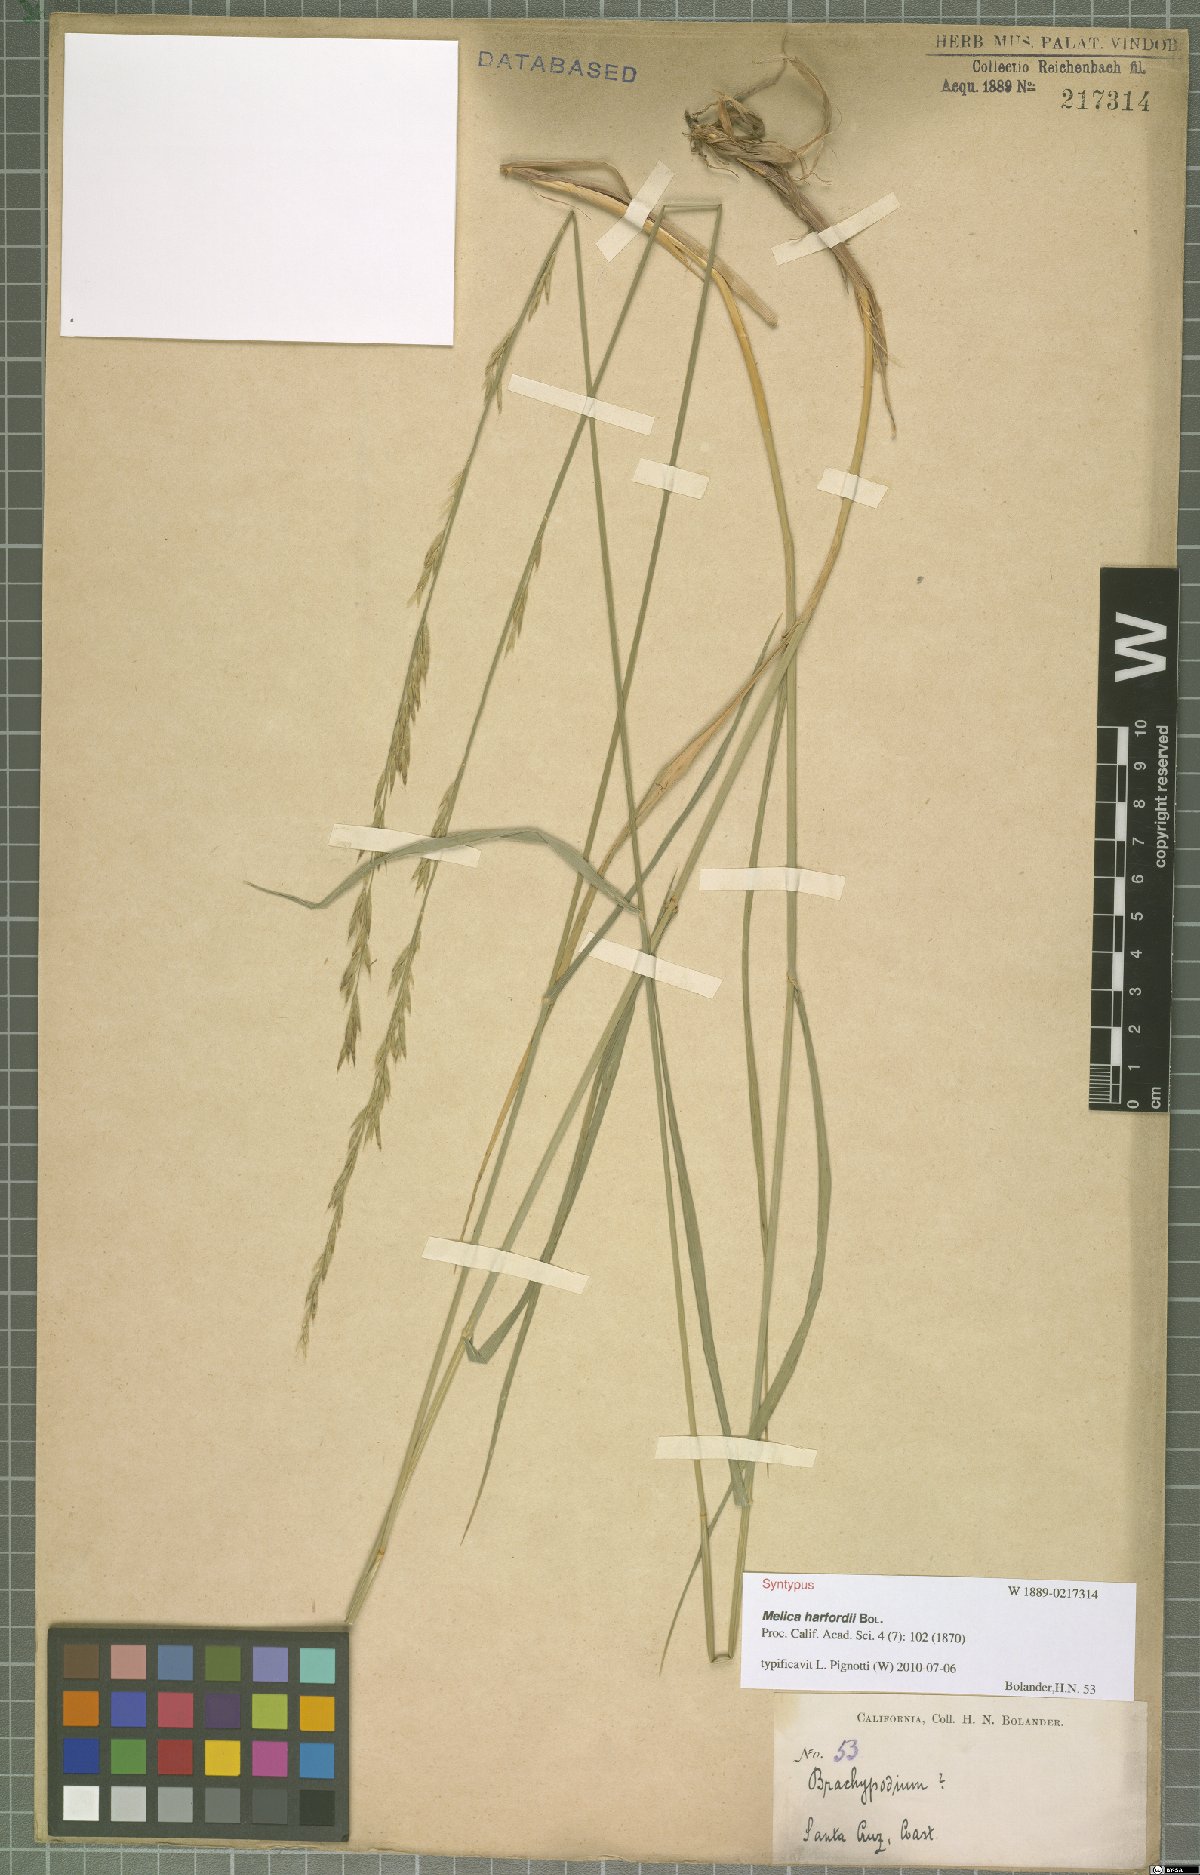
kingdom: Plantae
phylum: Tracheophyta
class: Liliopsida
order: Poales
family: Poaceae
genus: Melica
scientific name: Melica harfordii
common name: Harford's melic
